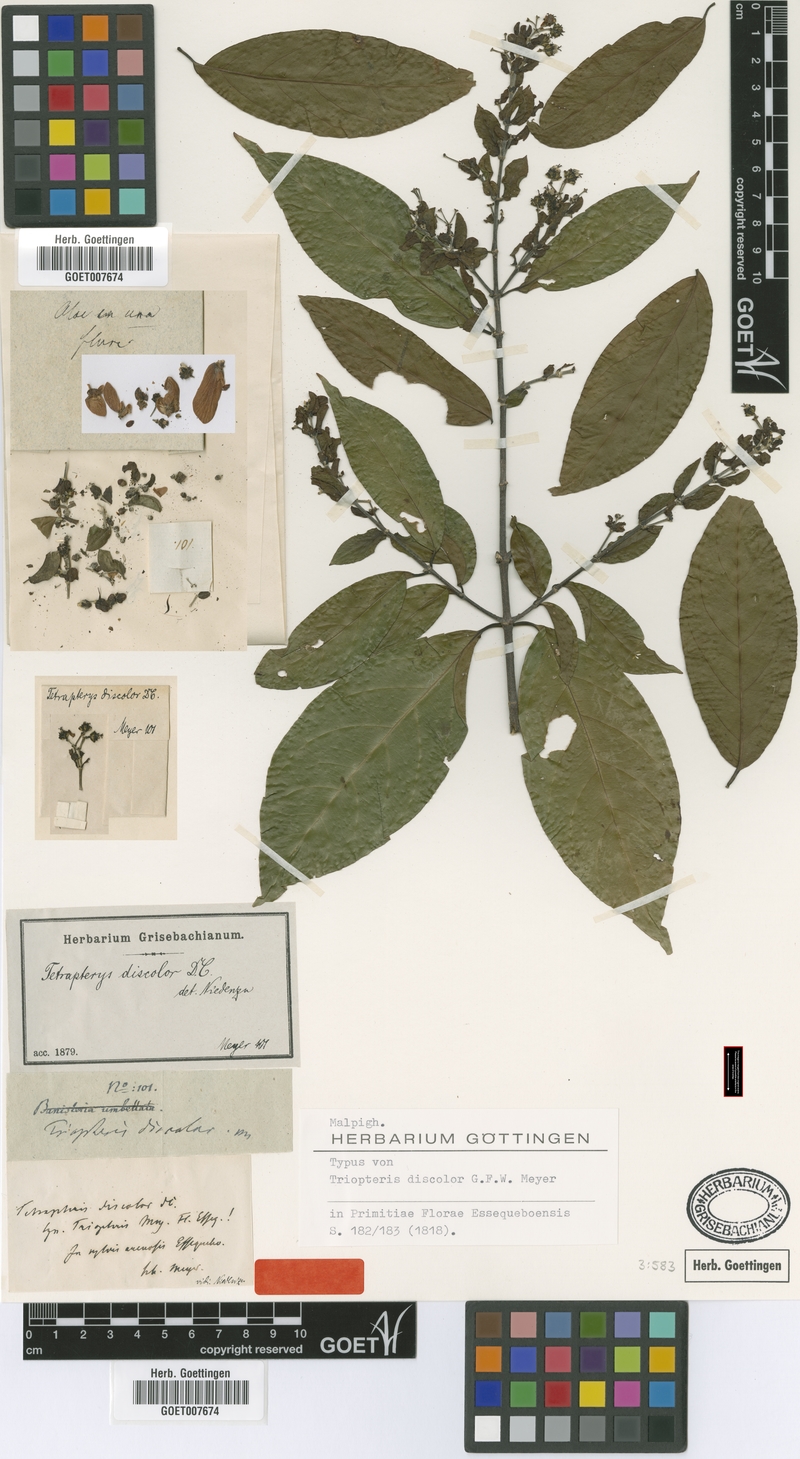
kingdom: Plantae
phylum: Tracheophyta
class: Magnoliopsida
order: Malpighiales
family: Malpighiaceae
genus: Tetrapterys
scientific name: Tetrapterys discolor
